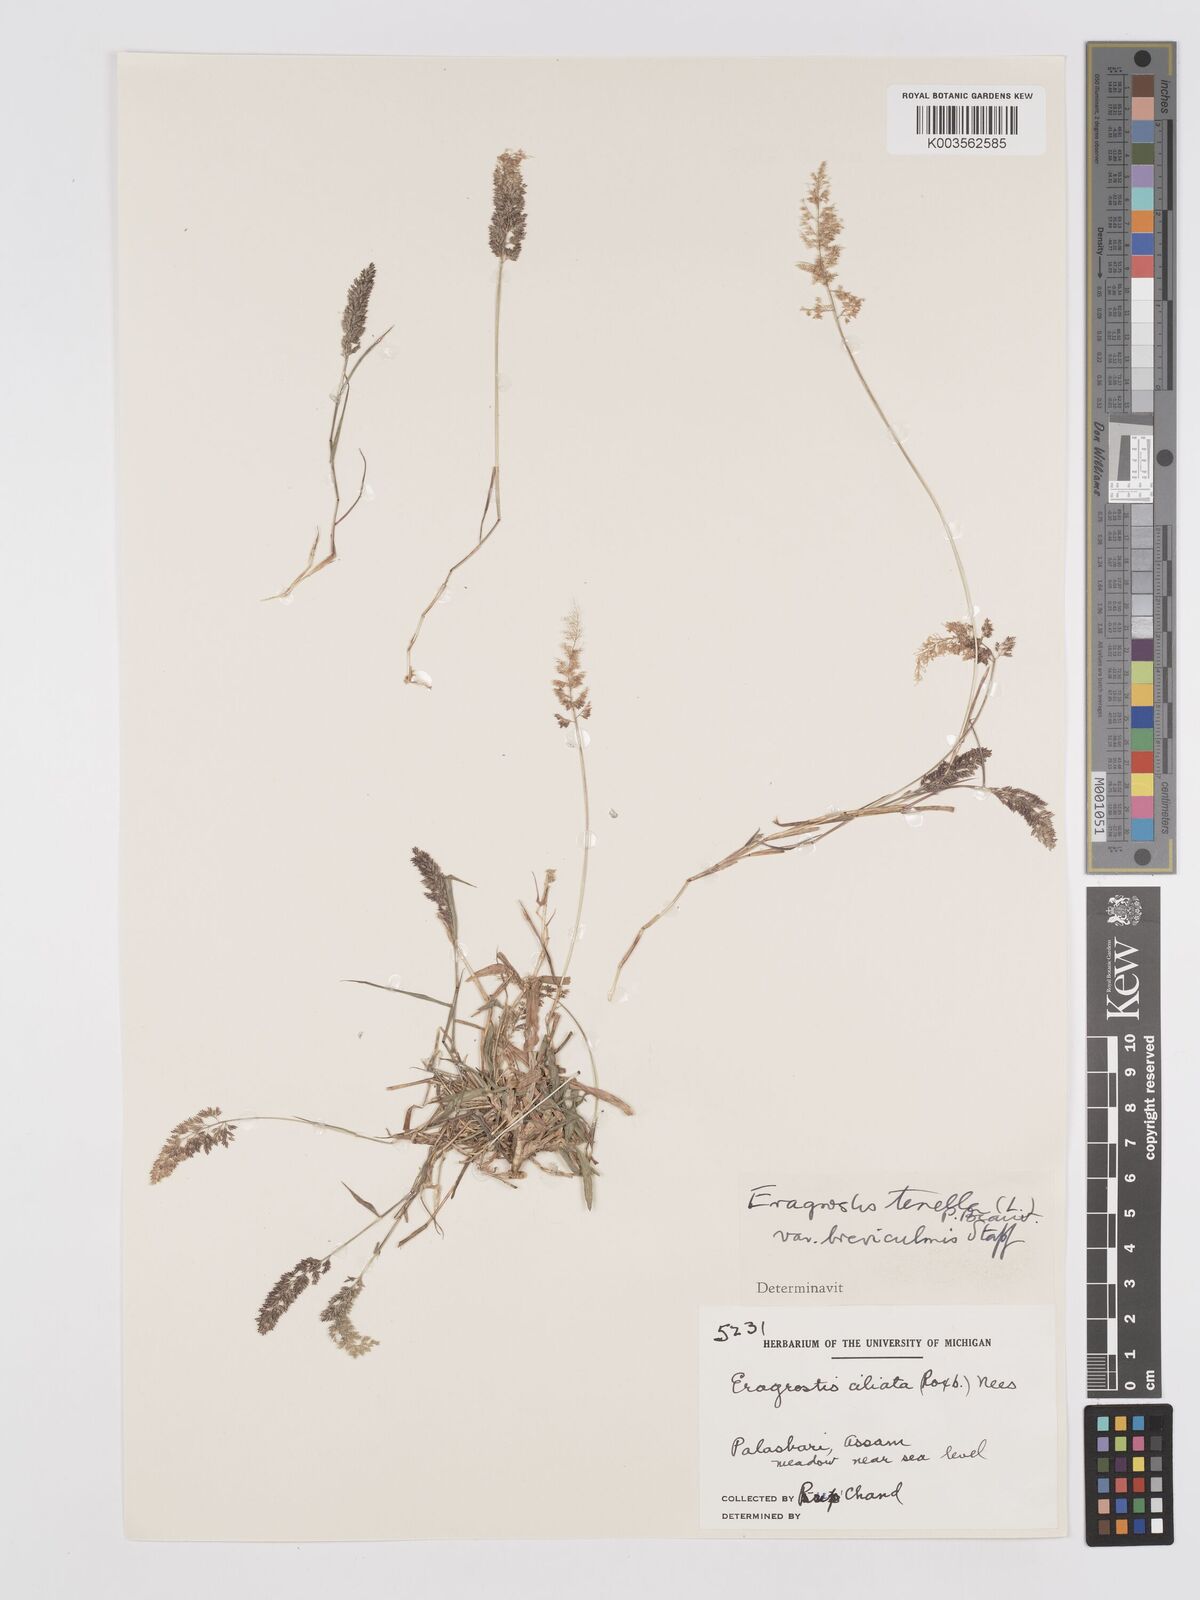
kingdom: Plantae
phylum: Tracheophyta
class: Liliopsida
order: Poales
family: Poaceae
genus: Eragrostis
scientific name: Eragrostis tenella
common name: Japanese lovegrass
